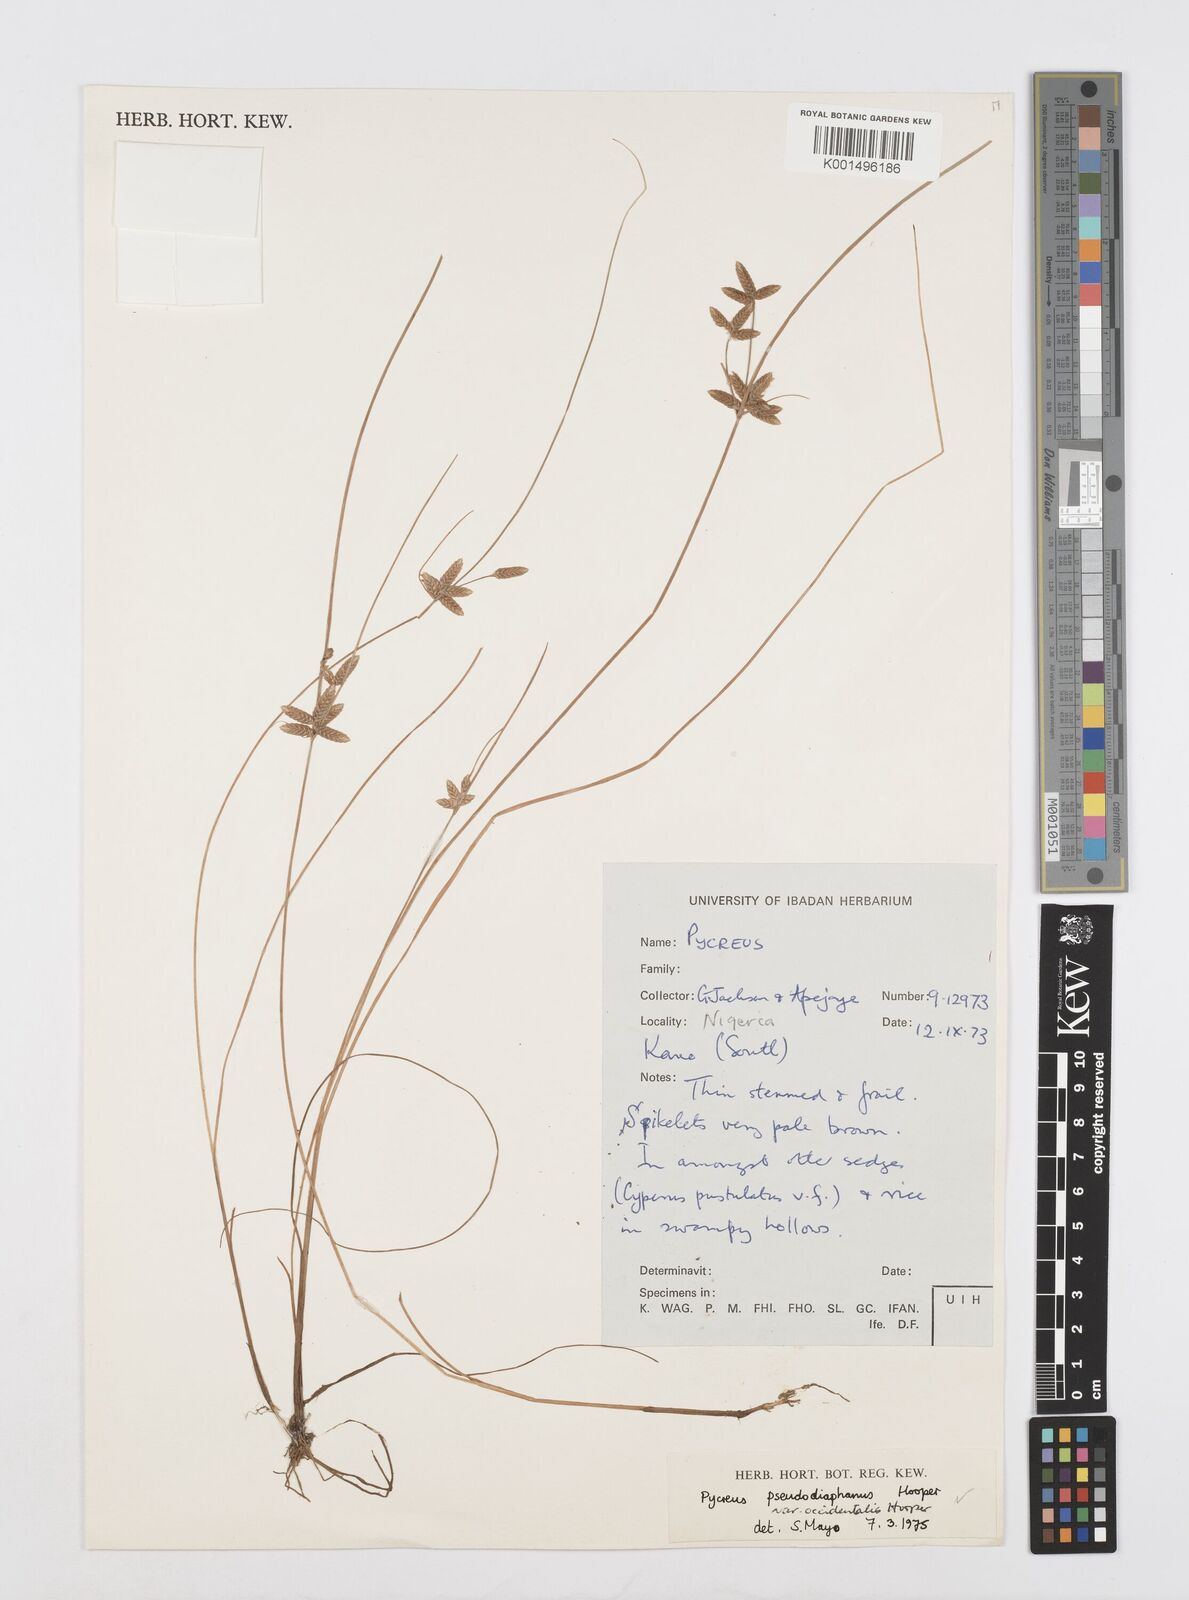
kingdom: Plantae
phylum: Tracheophyta
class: Liliopsida
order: Poales
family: Cyperaceae
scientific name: Cyperaceae
